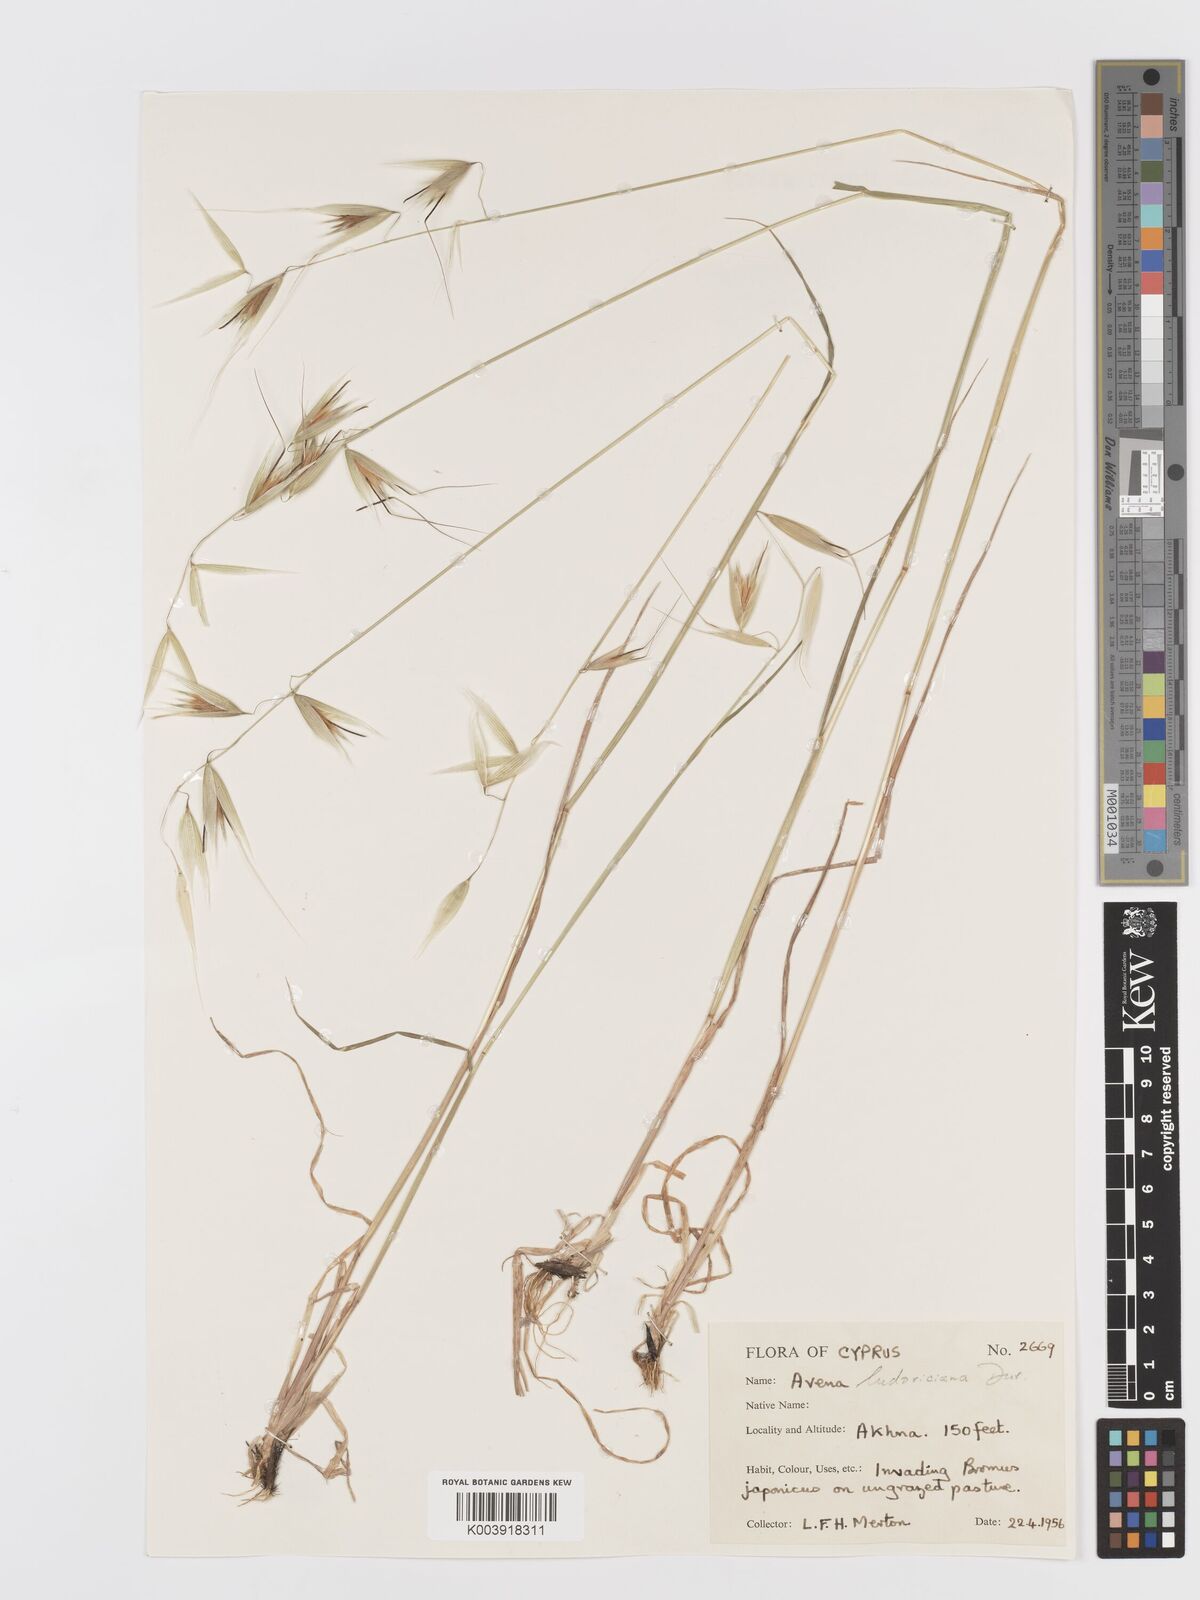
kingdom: Plantae
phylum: Tracheophyta
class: Liliopsida
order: Poales
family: Poaceae
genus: Avena
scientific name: Avena sterilis
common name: Animated oat
